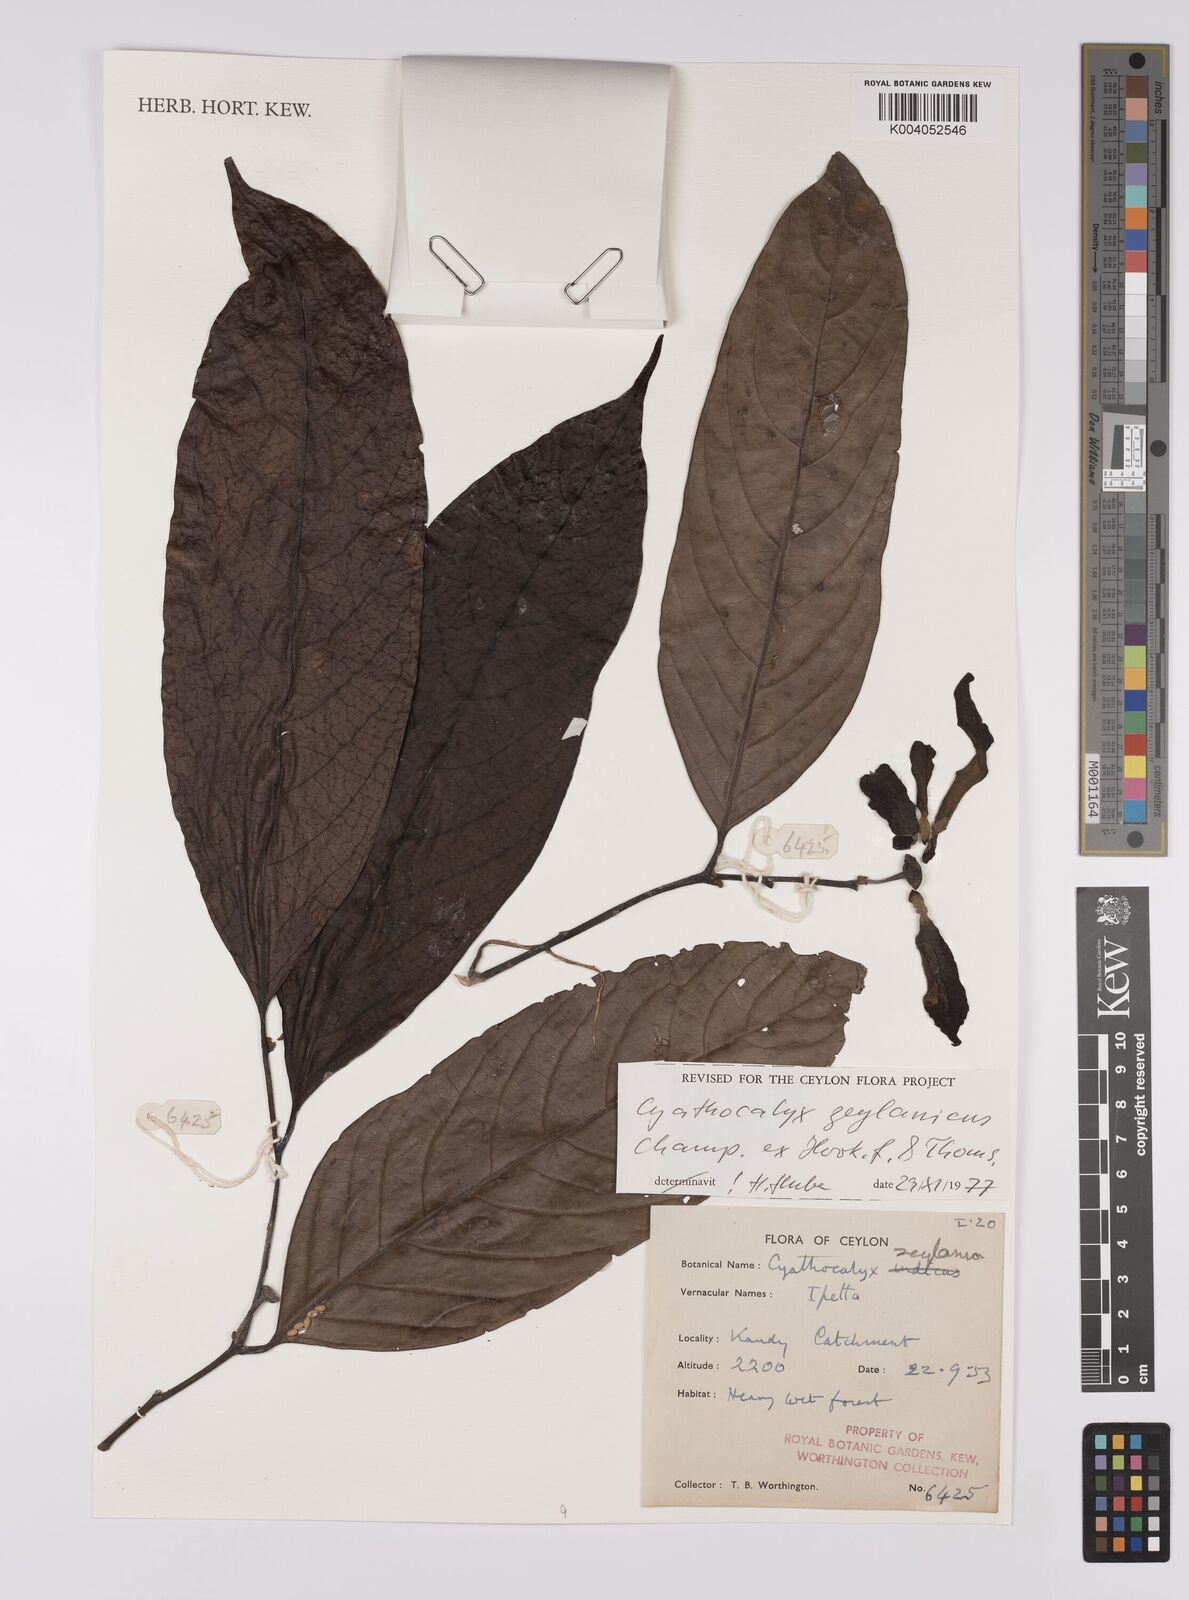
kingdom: Plantae
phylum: Tracheophyta
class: Magnoliopsida
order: Magnoliales
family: Annonaceae
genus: Cyathocalyx
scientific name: Cyathocalyx zeylanicus
